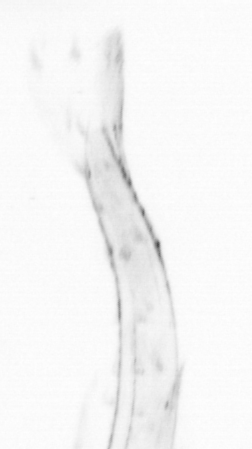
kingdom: Animalia
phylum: Chordata
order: Copelata
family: Fritillariidae
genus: Appendicularia
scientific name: Appendicularia
